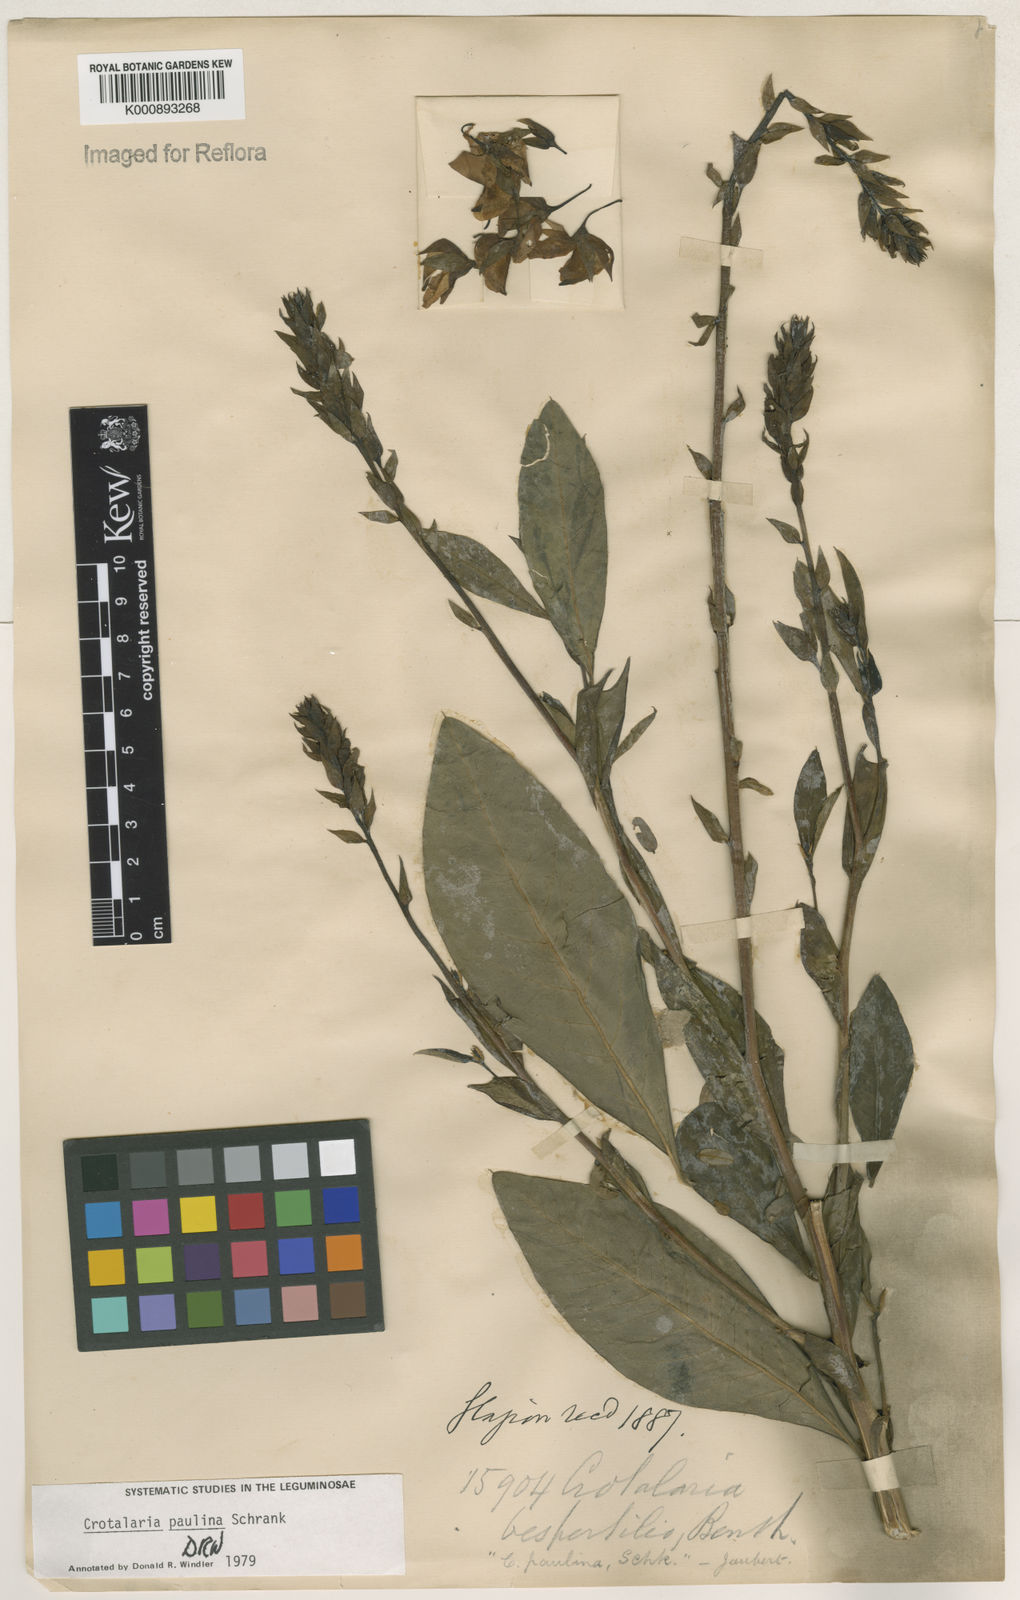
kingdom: Plantae
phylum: Tracheophyta
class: Magnoliopsida
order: Fabales
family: Fabaceae
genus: Crotalaria
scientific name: Crotalaria paulina
